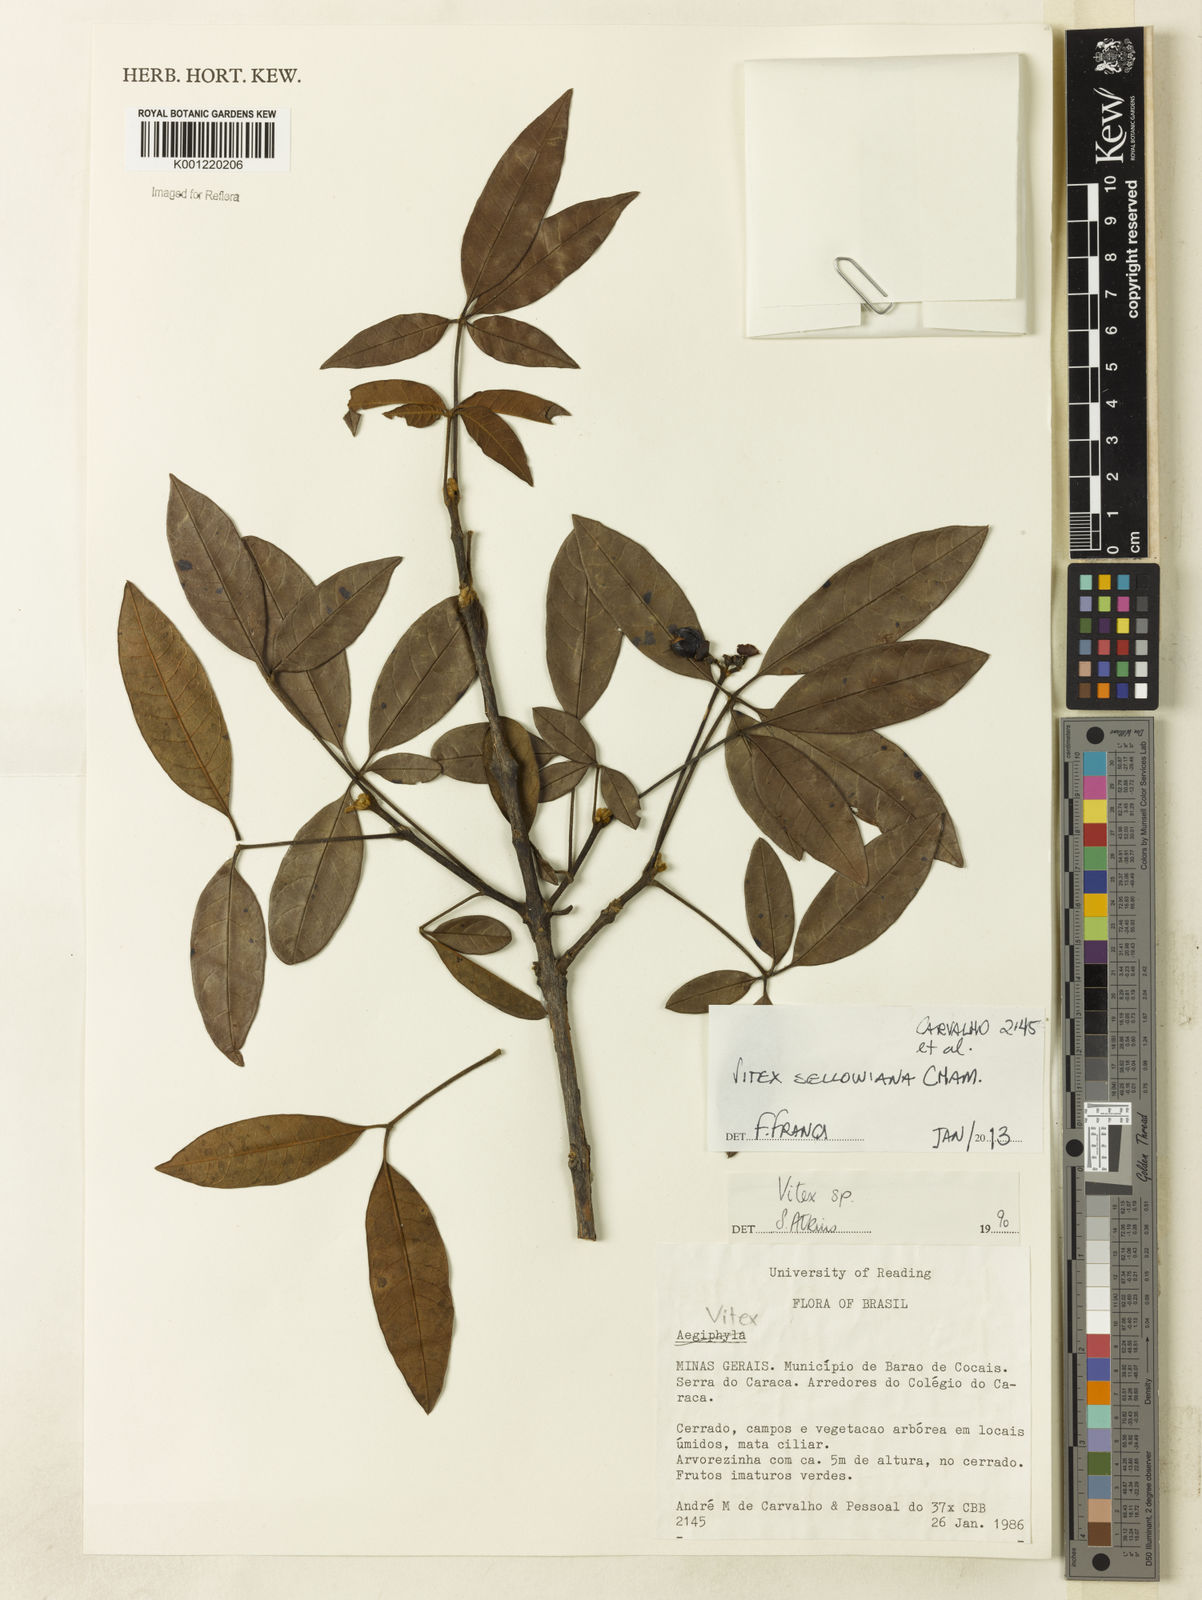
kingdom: Plantae
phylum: Tracheophyta
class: Magnoliopsida
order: Lamiales
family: Lamiaceae
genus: Vitex
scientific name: Vitex sellowiana
